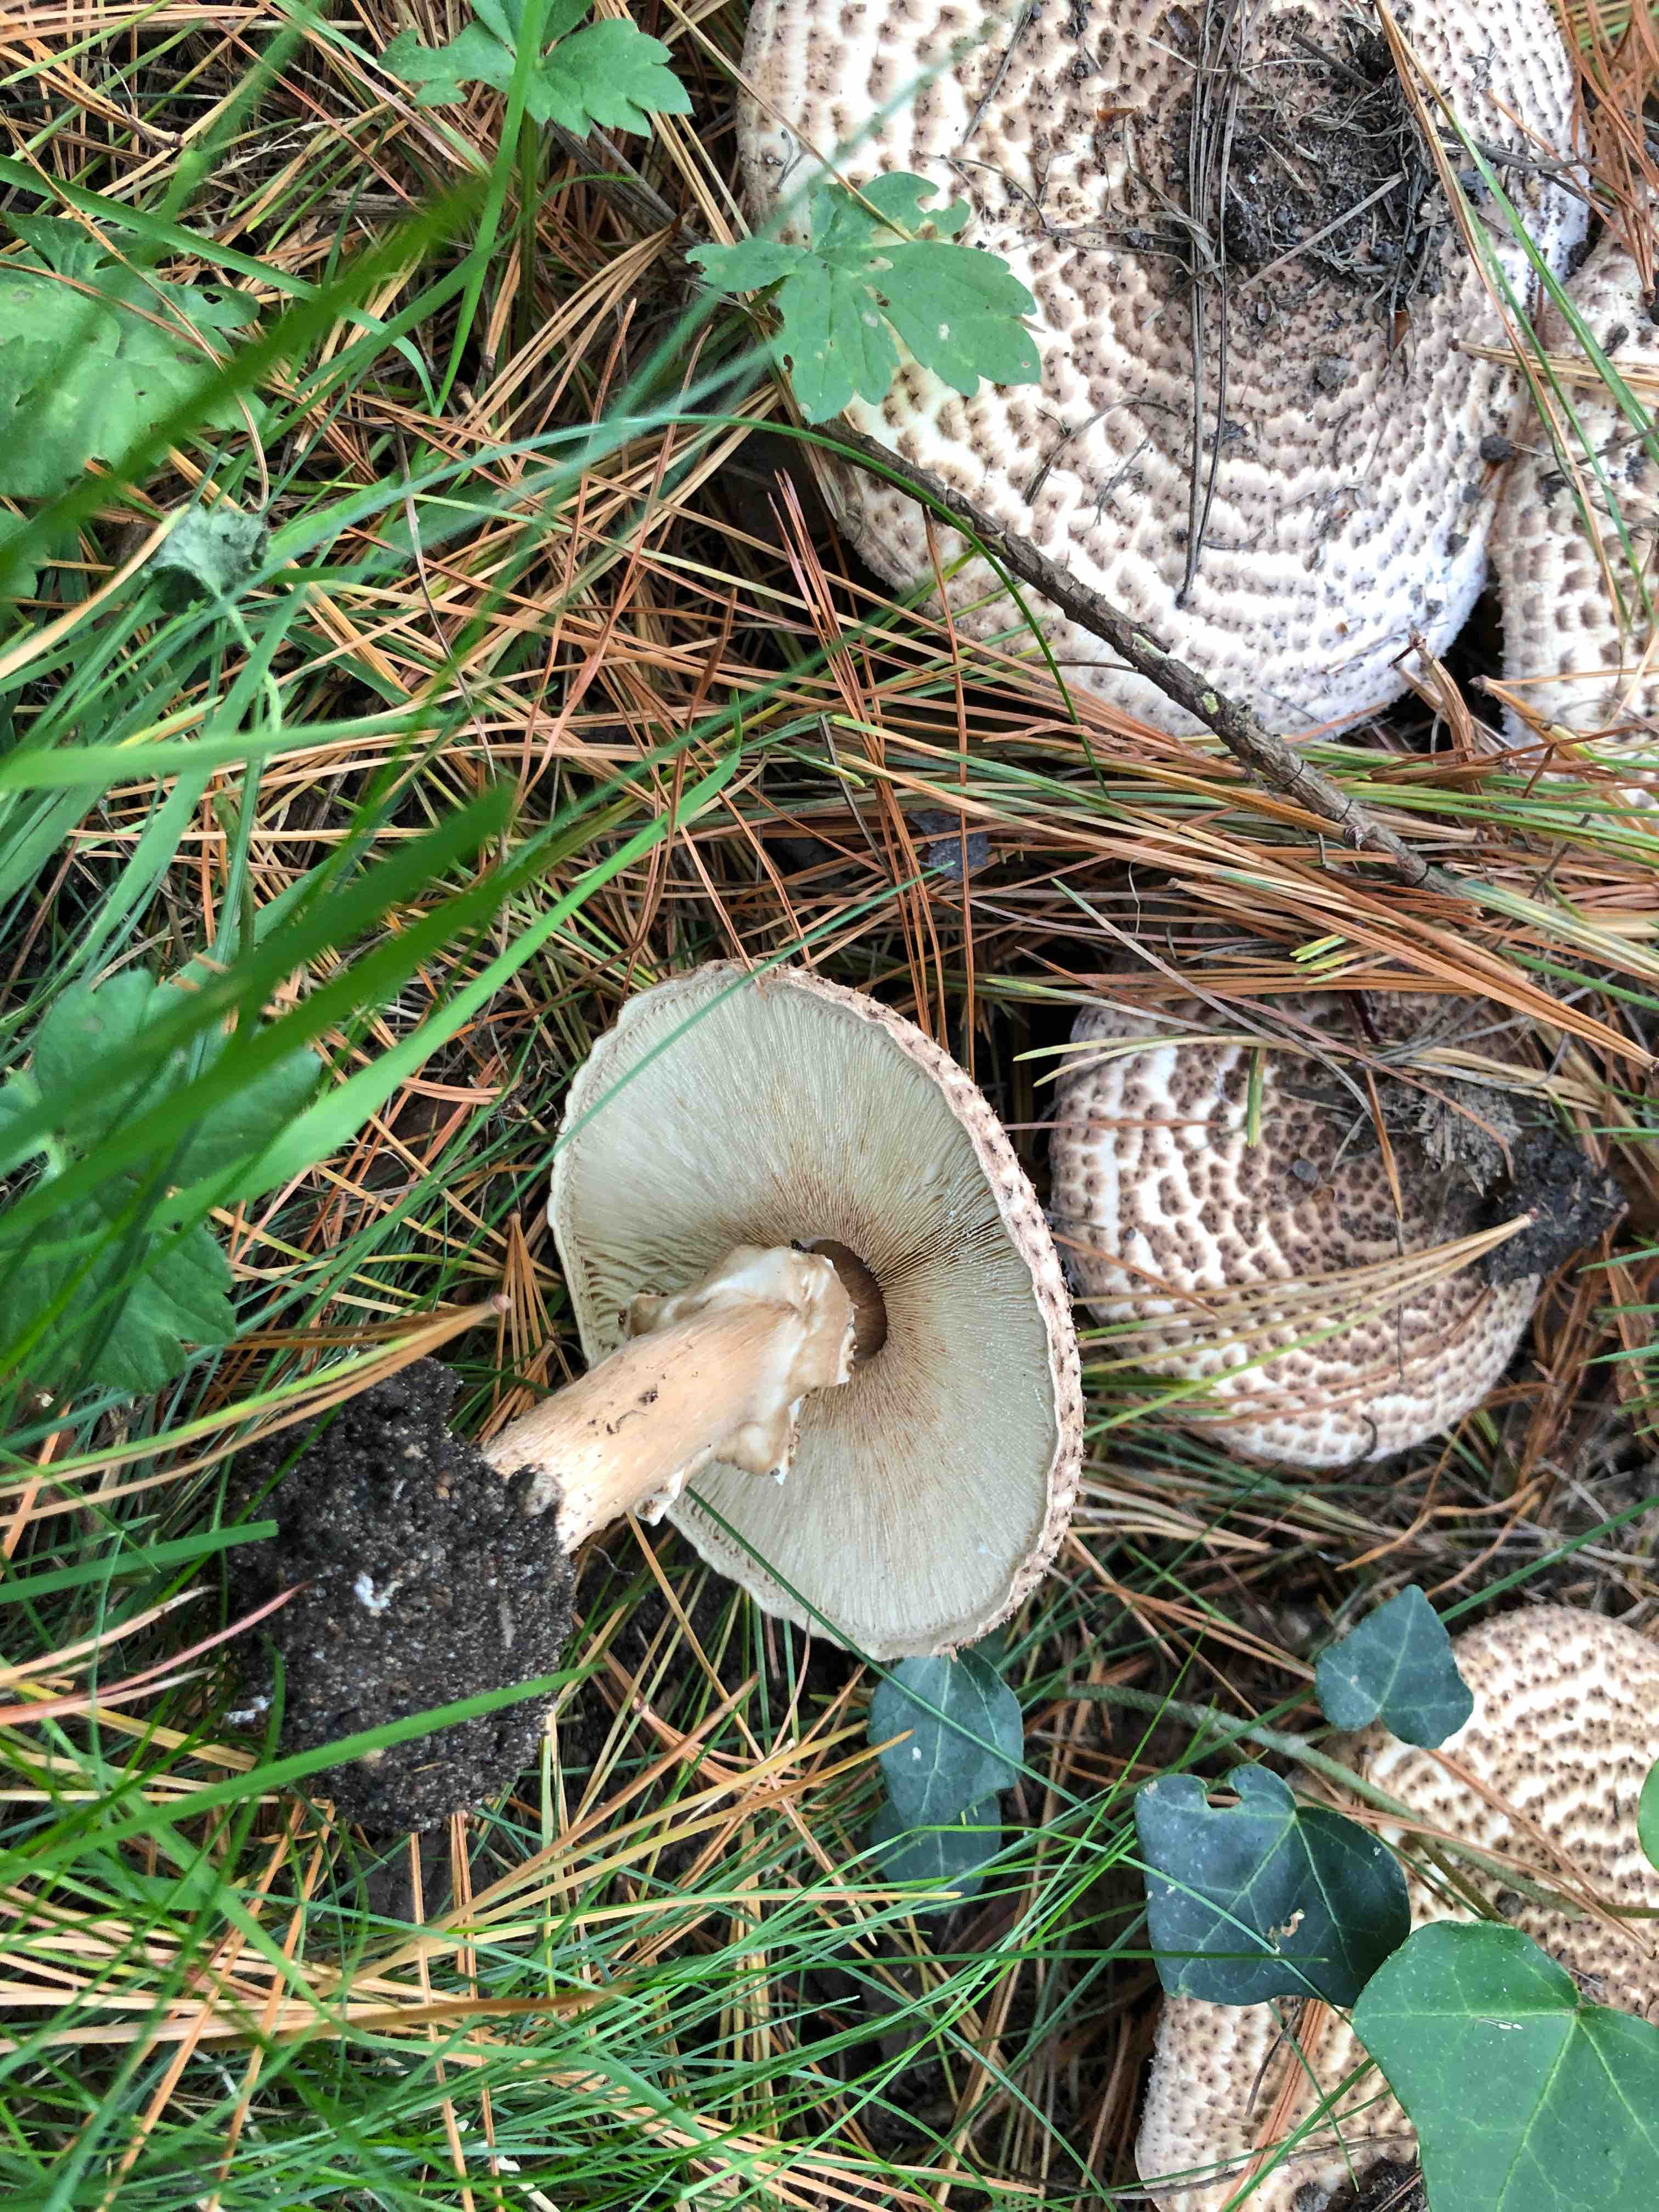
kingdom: Fungi
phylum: Basidiomycota
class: Agaricomycetes
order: Agaricales
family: Agaricaceae
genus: Echinoderma
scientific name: Echinoderma asperum
